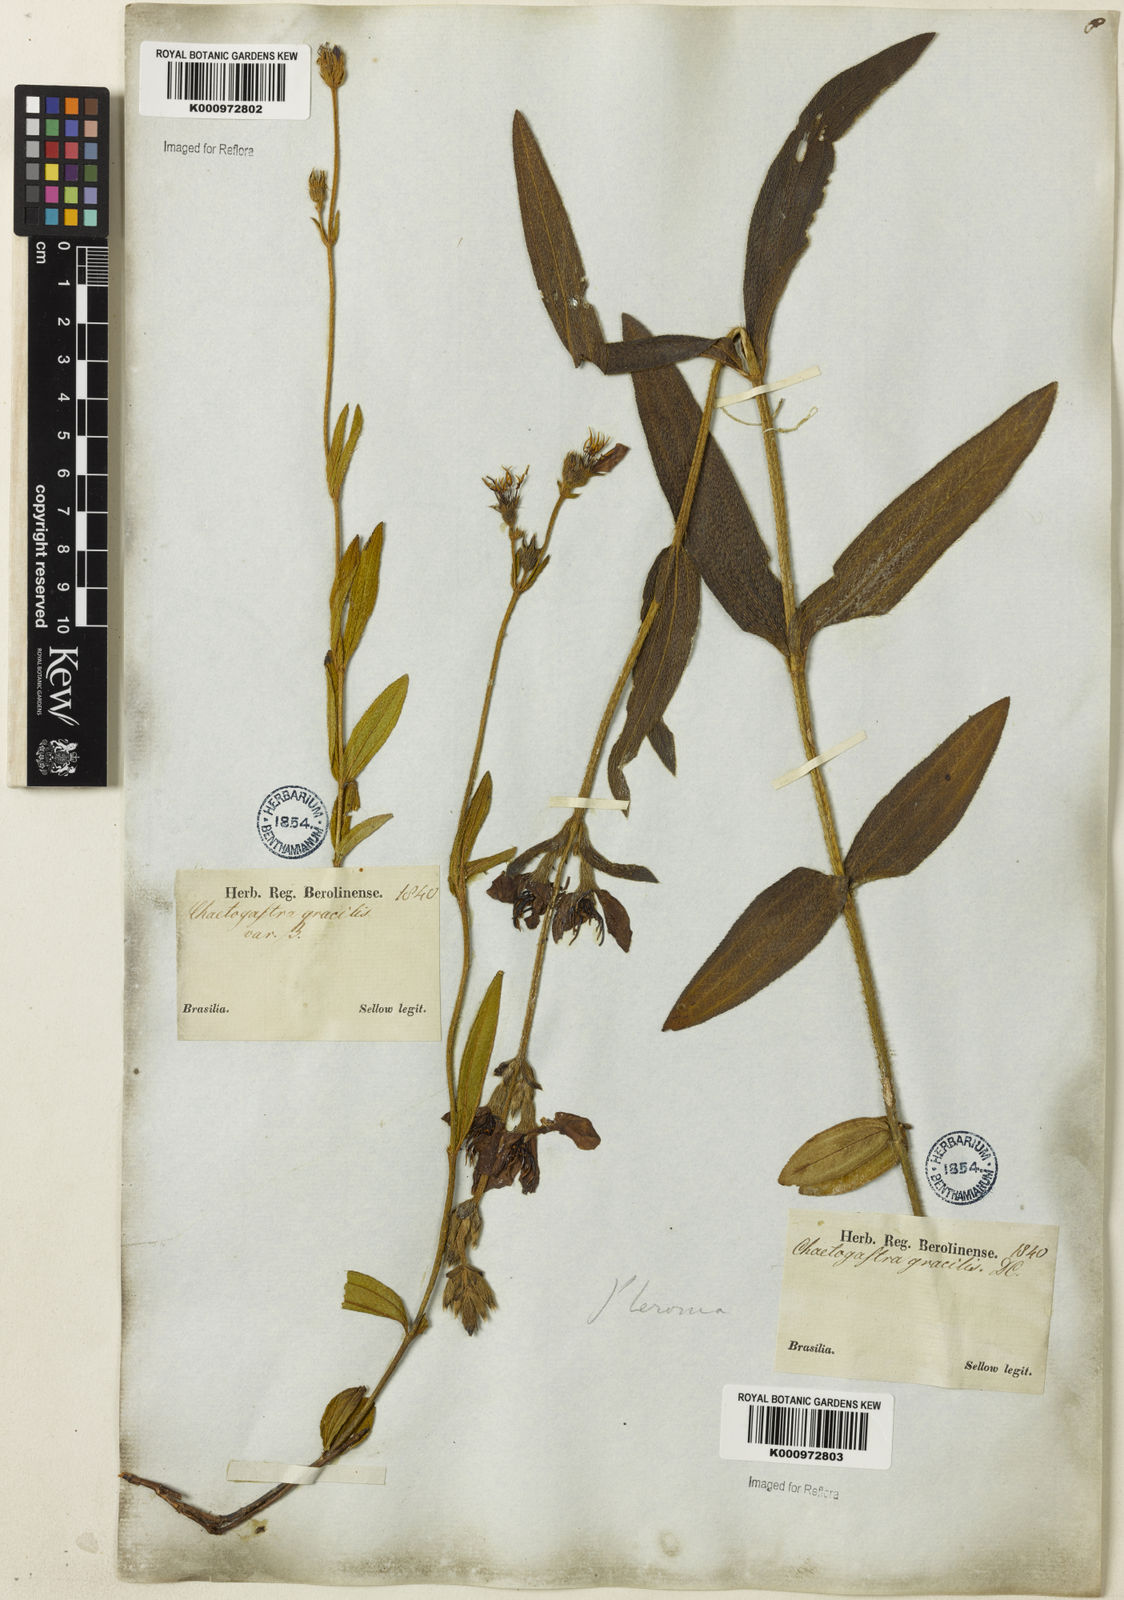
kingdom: Plantae
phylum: Tracheophyta
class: Magnoliopsida
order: Myrtales
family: Melastomataceae
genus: Chaetogastra
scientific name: Chaetogastra gracilis
